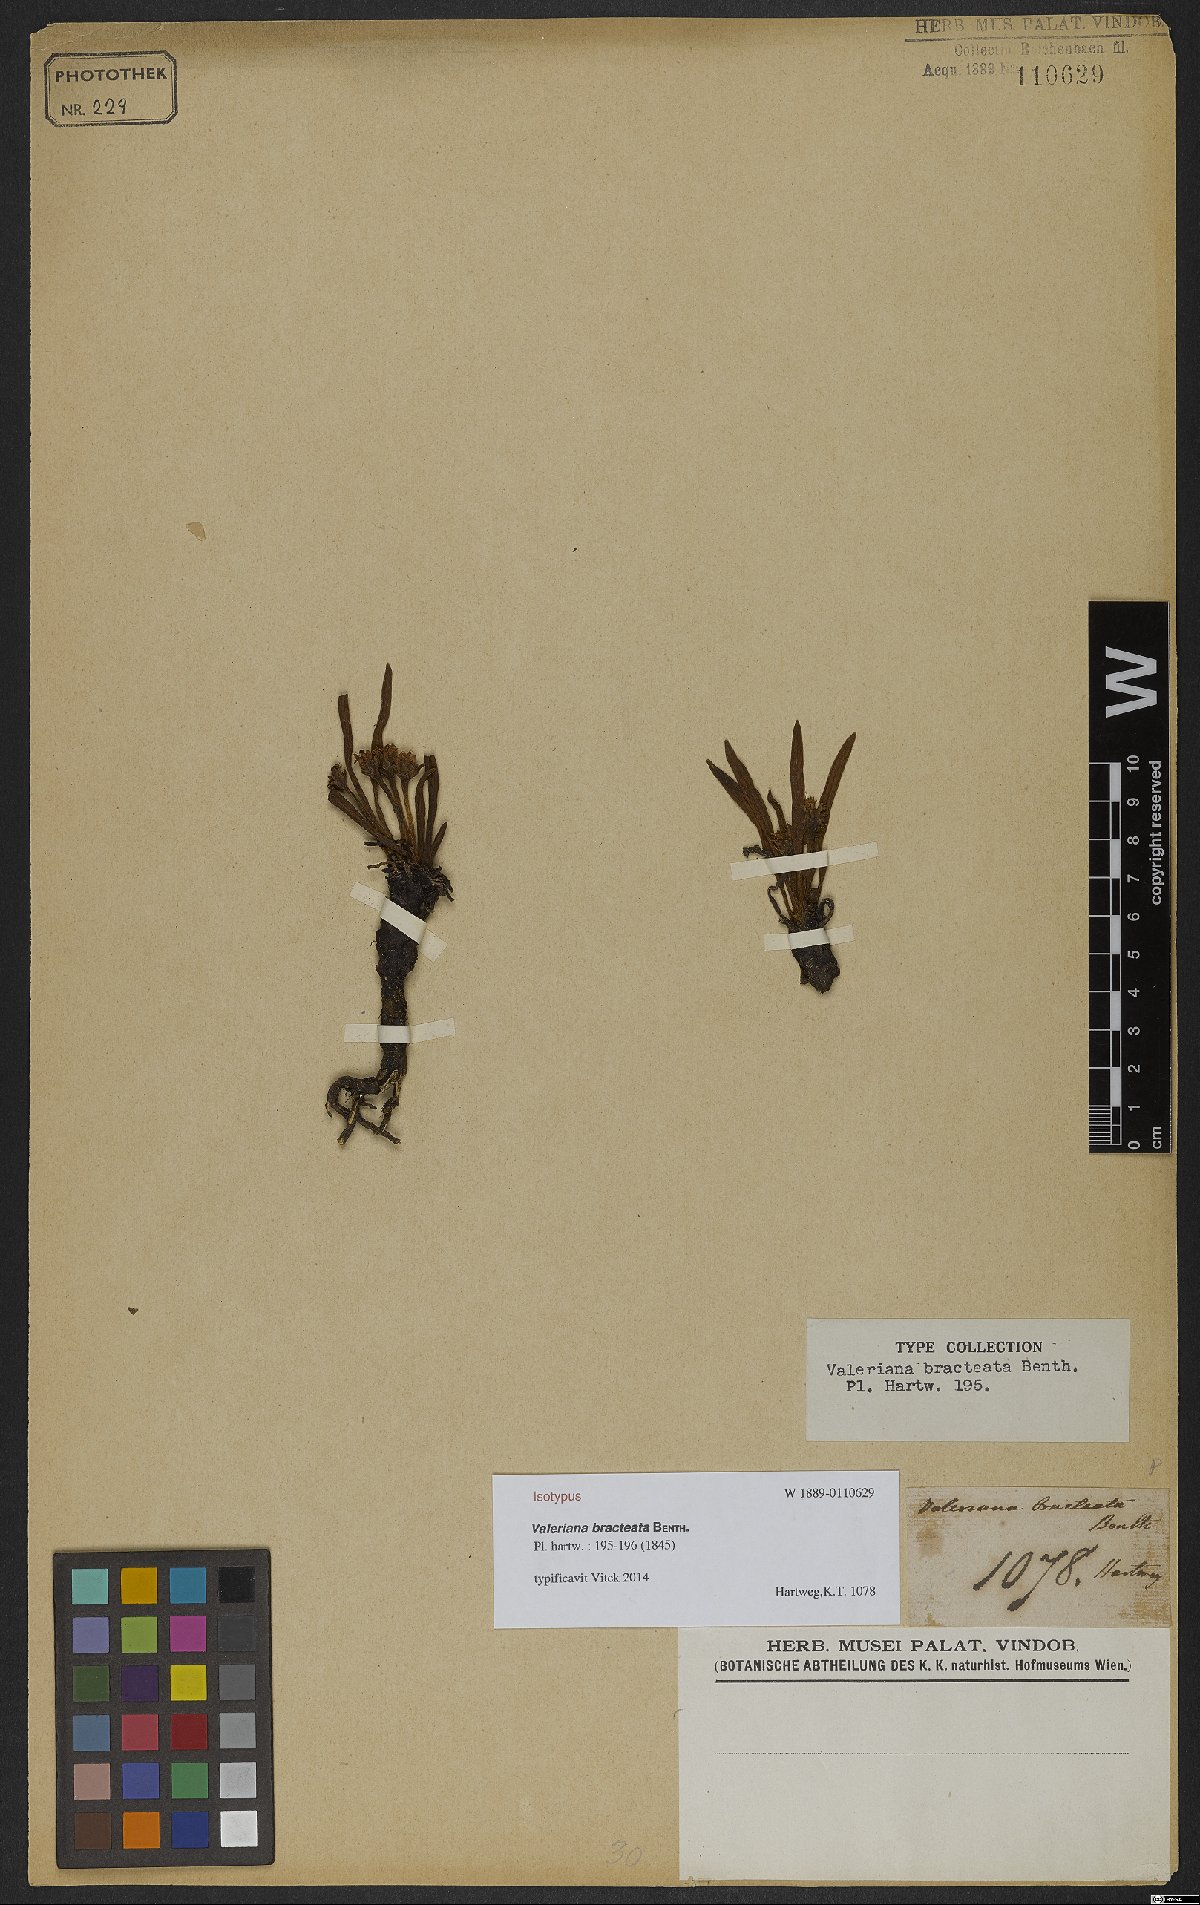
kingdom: Plantae
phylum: Tracheophyta
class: Magnoliopsida
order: Dipsacales
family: Caprifoliaceae
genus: Valeriana
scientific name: Valeriana bracteata
